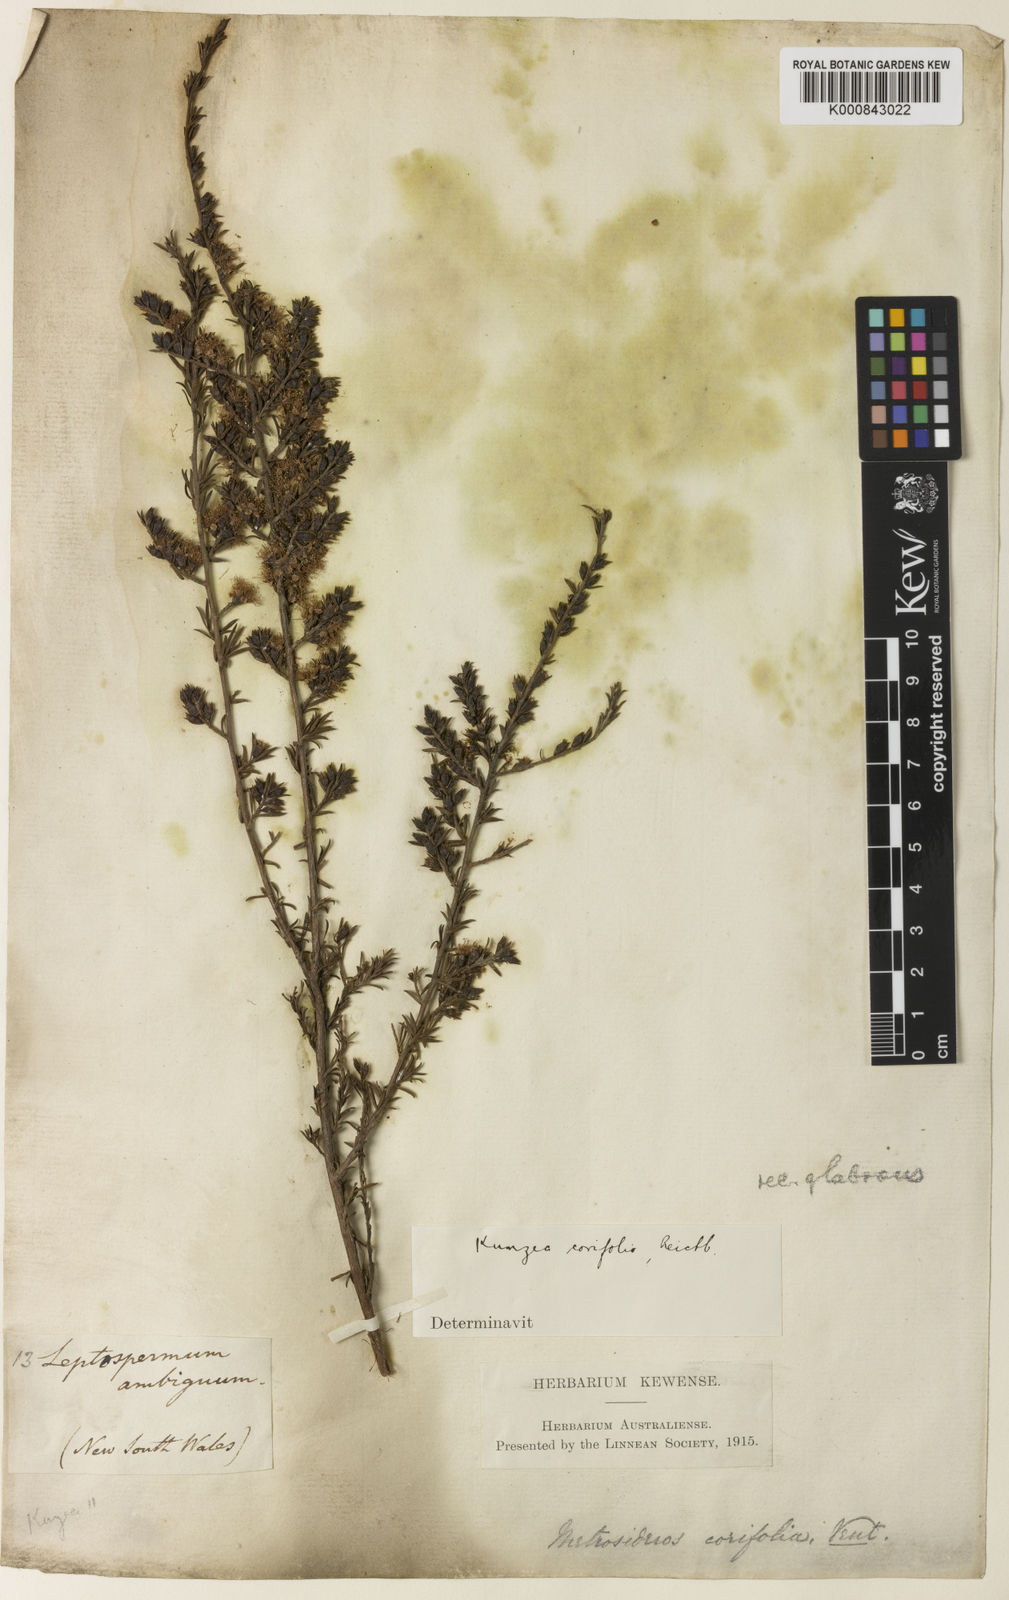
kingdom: Plantae
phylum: Tracheophyta
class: Magnoliopsida
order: Myrtales
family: Myrtaceae
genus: Kunzea
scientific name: Kunzea ambigua
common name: Tickbush
